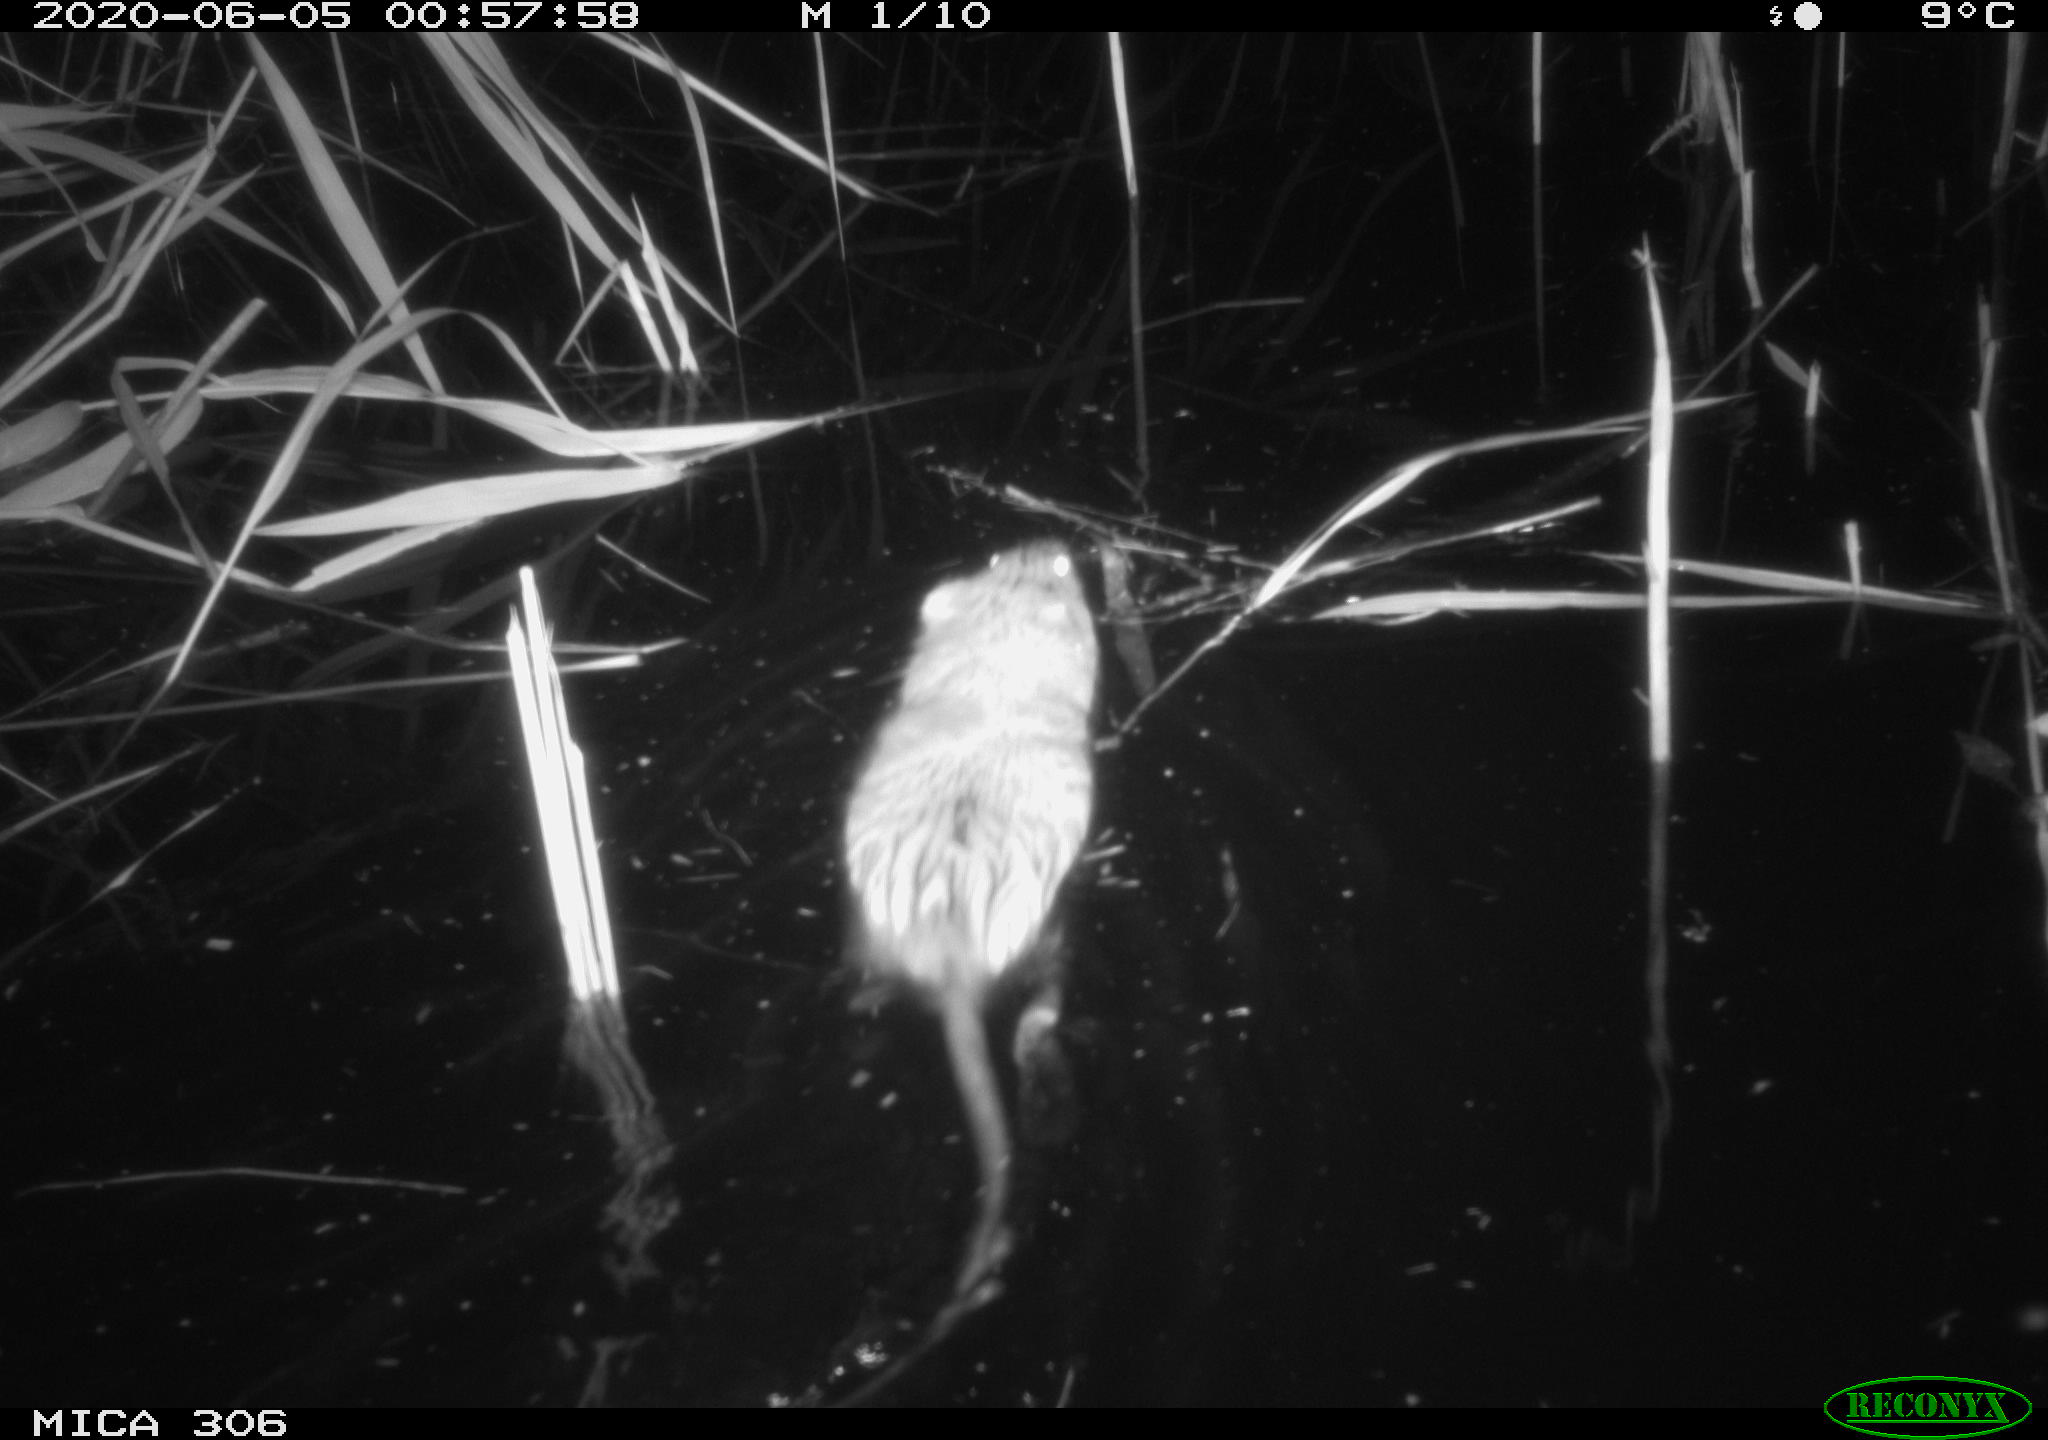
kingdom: Animalia
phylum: Chordata
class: Mammalia
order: Rodentia
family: Cricetidae
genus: Ondatra
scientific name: Ondatra zibethicus
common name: Muskrat
